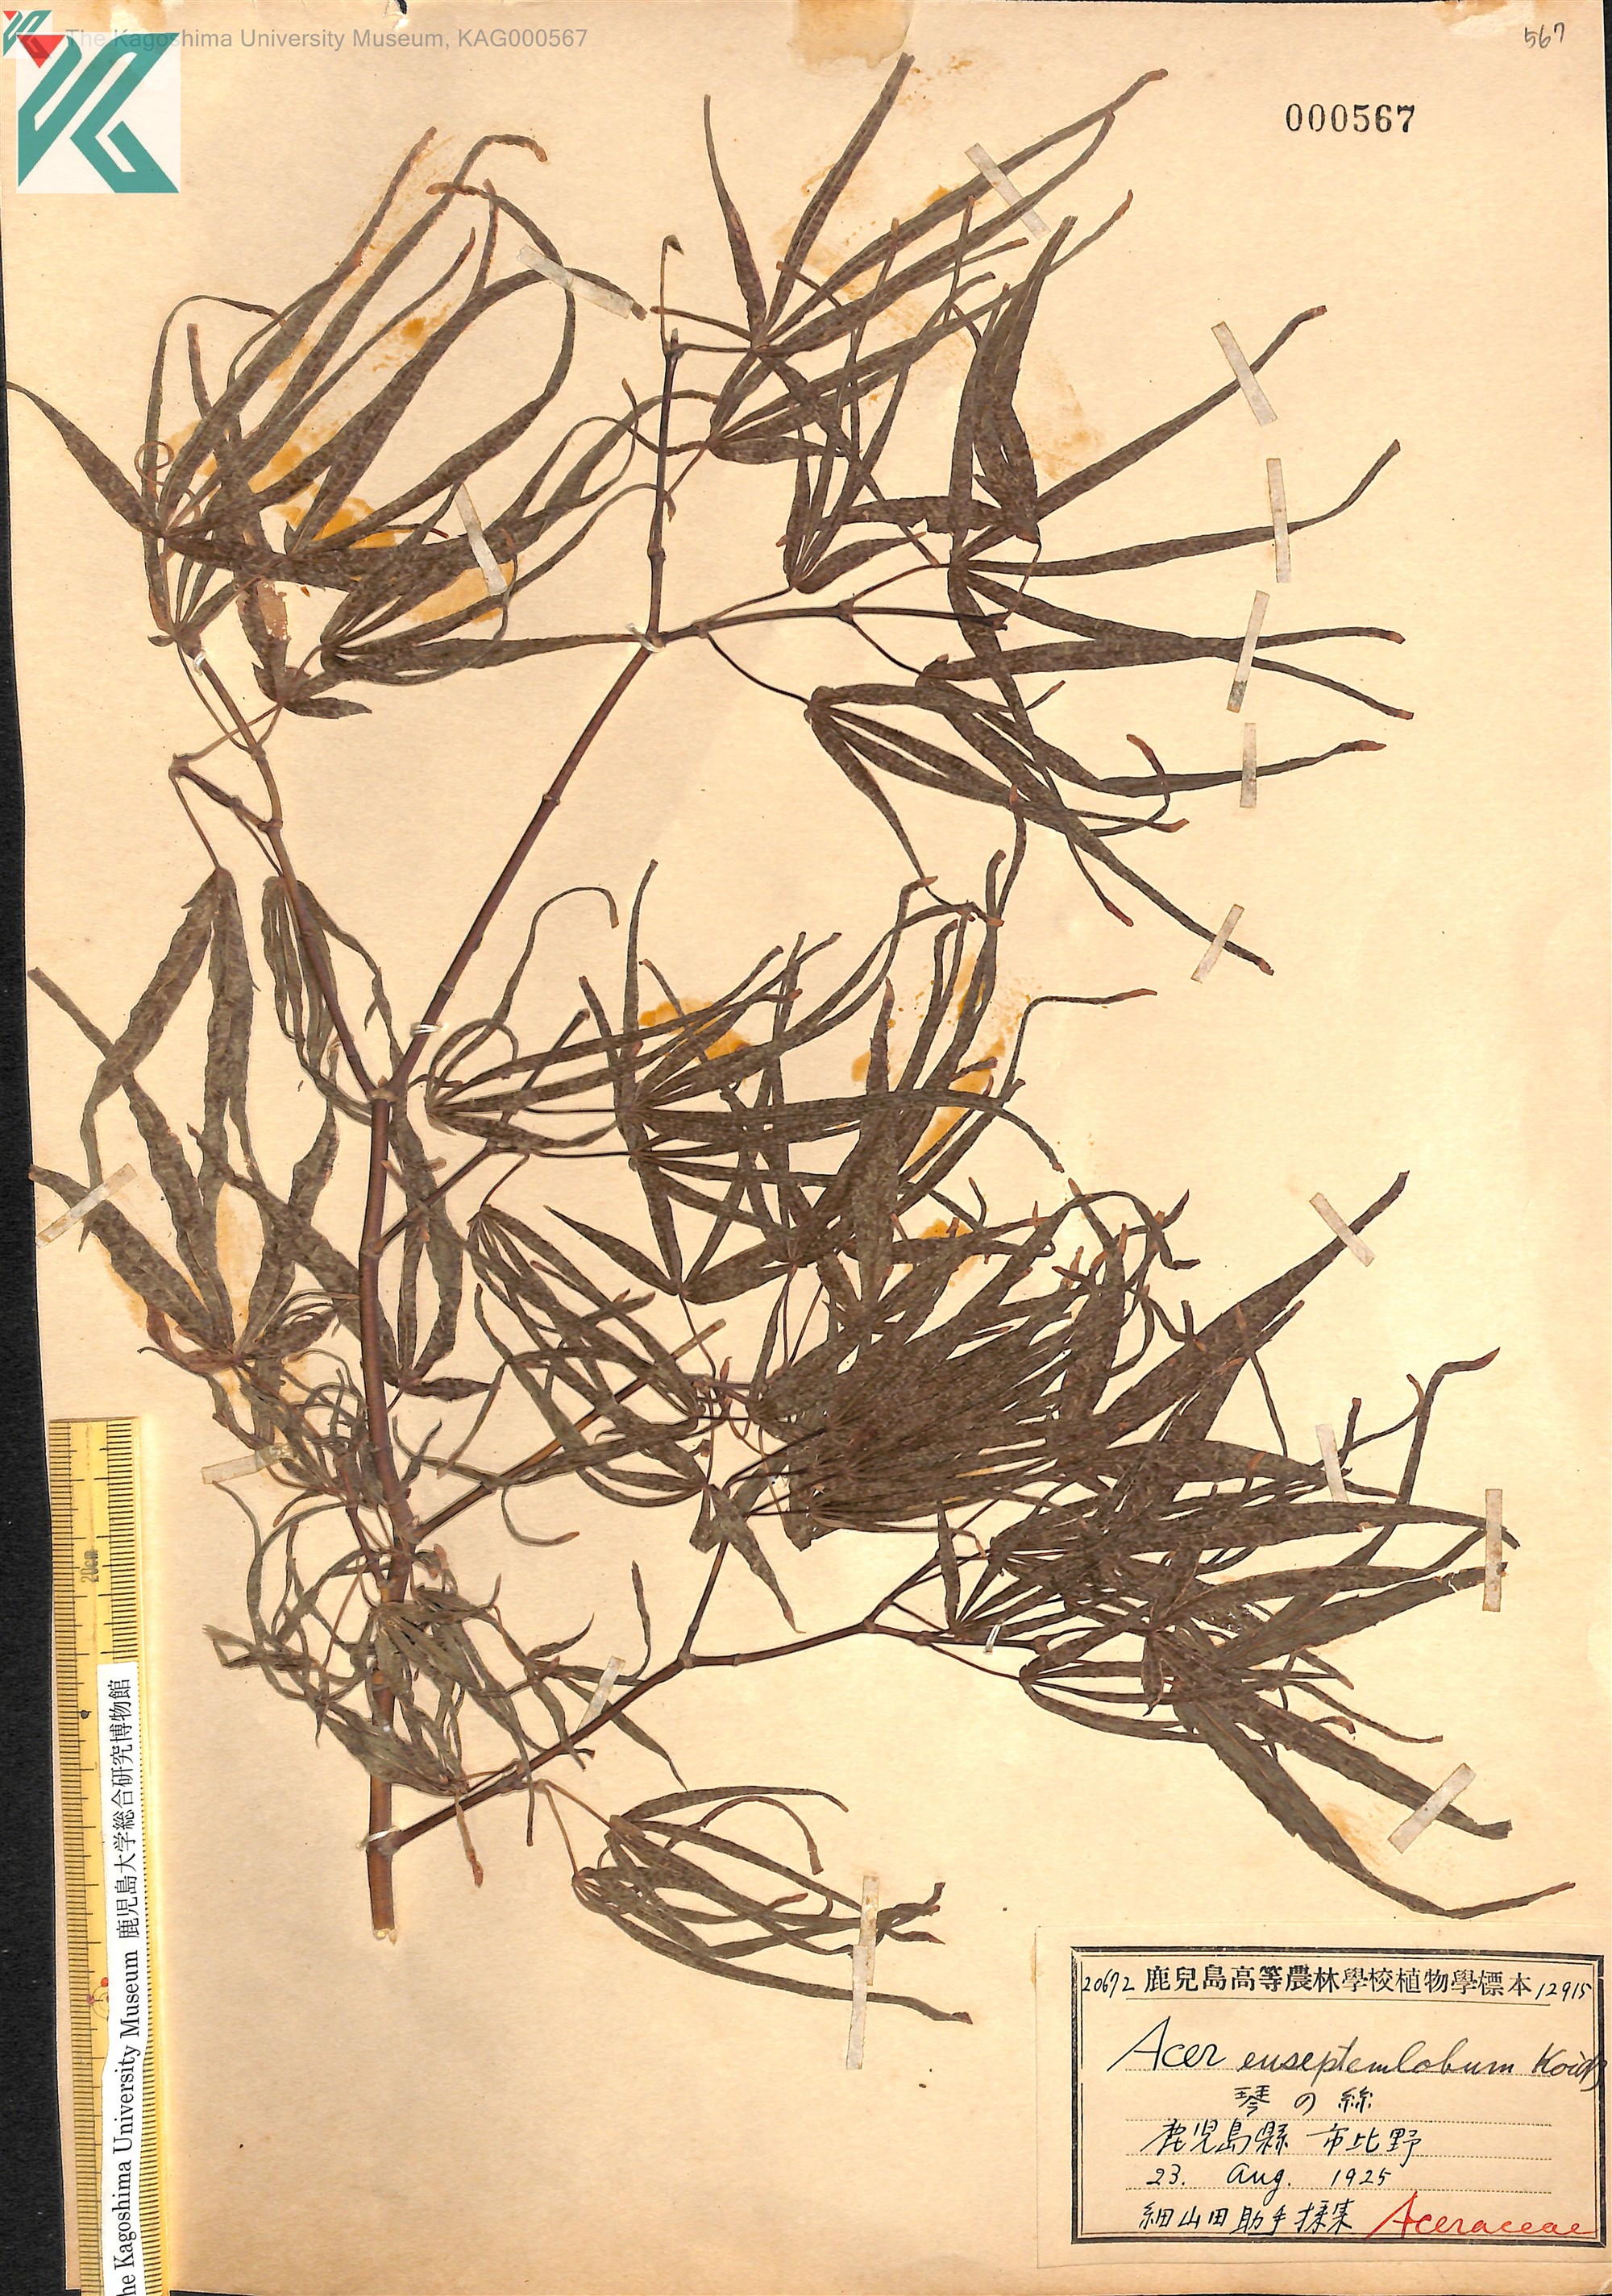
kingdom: Plantae
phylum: Tracheophyta
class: Magnoliopsida
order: Sapindales
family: Sapindaceae
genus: Acer
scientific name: Acer palmatum
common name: Japanese maple
